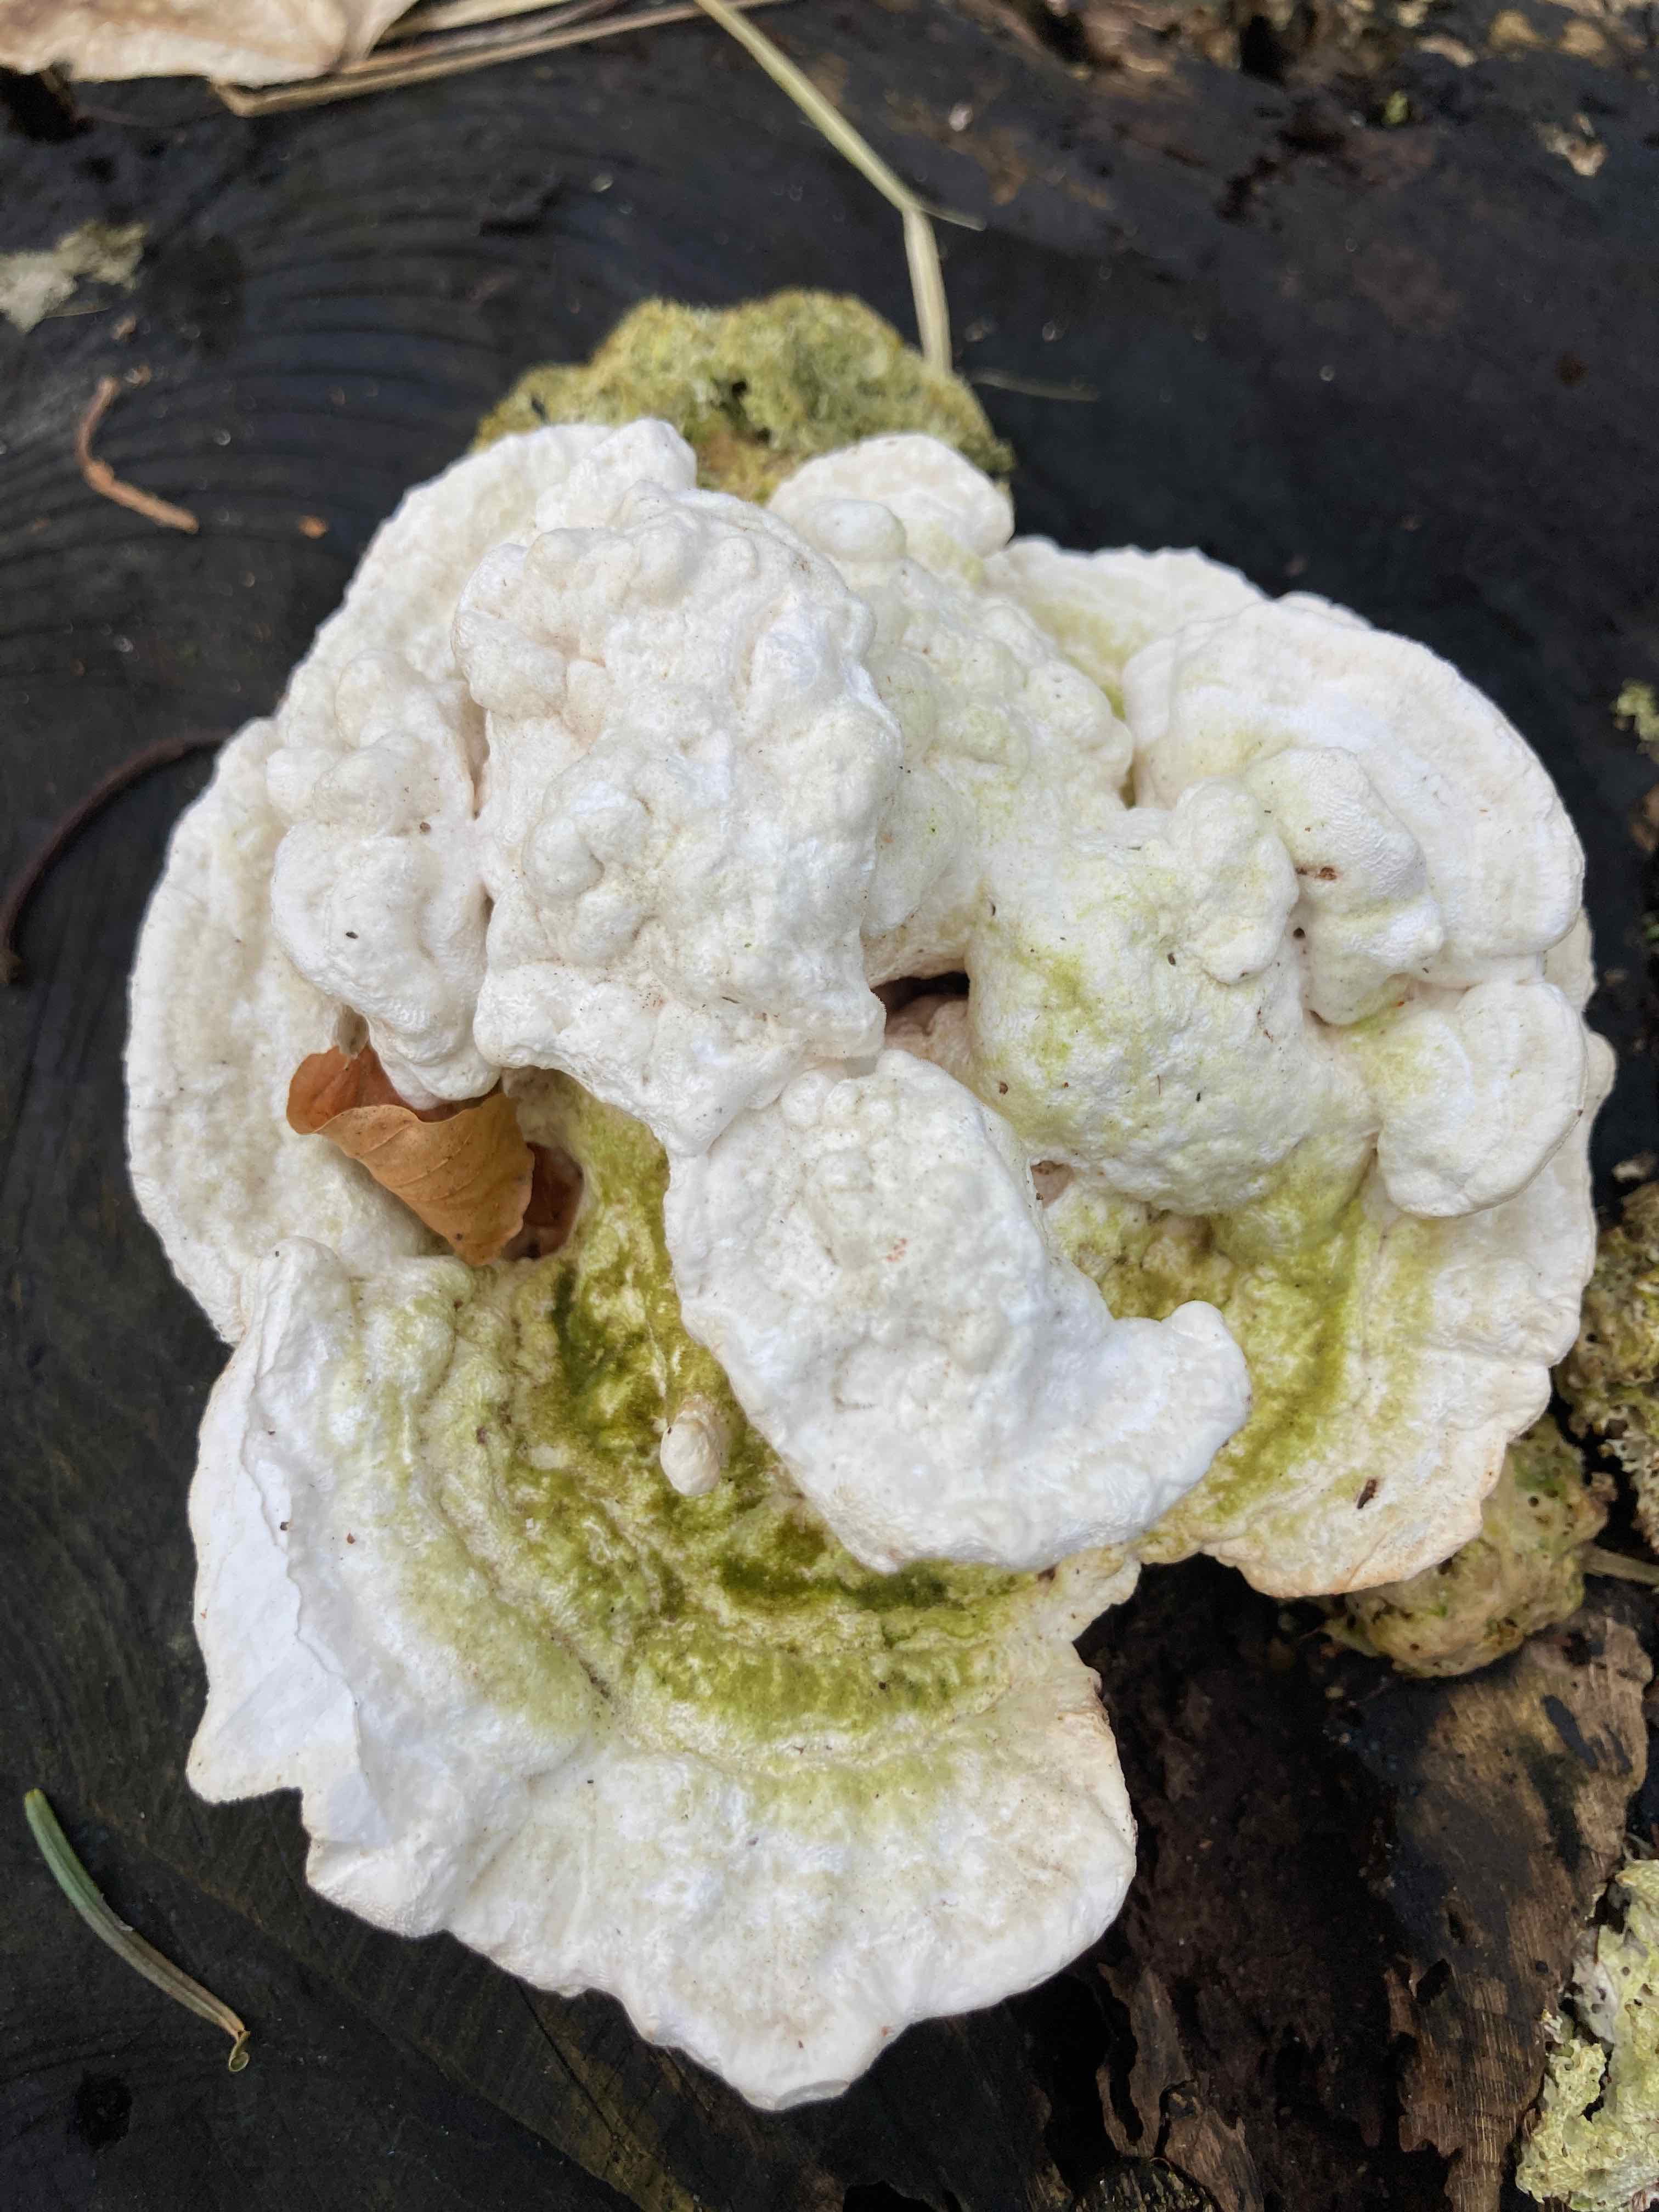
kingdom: Fungi
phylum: Basidiomycota
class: Agaricomycetes
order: Polyporales
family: Polyporaceae
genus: Trametes
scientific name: Trametes gibbosa
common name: puklet læderporesvamp
